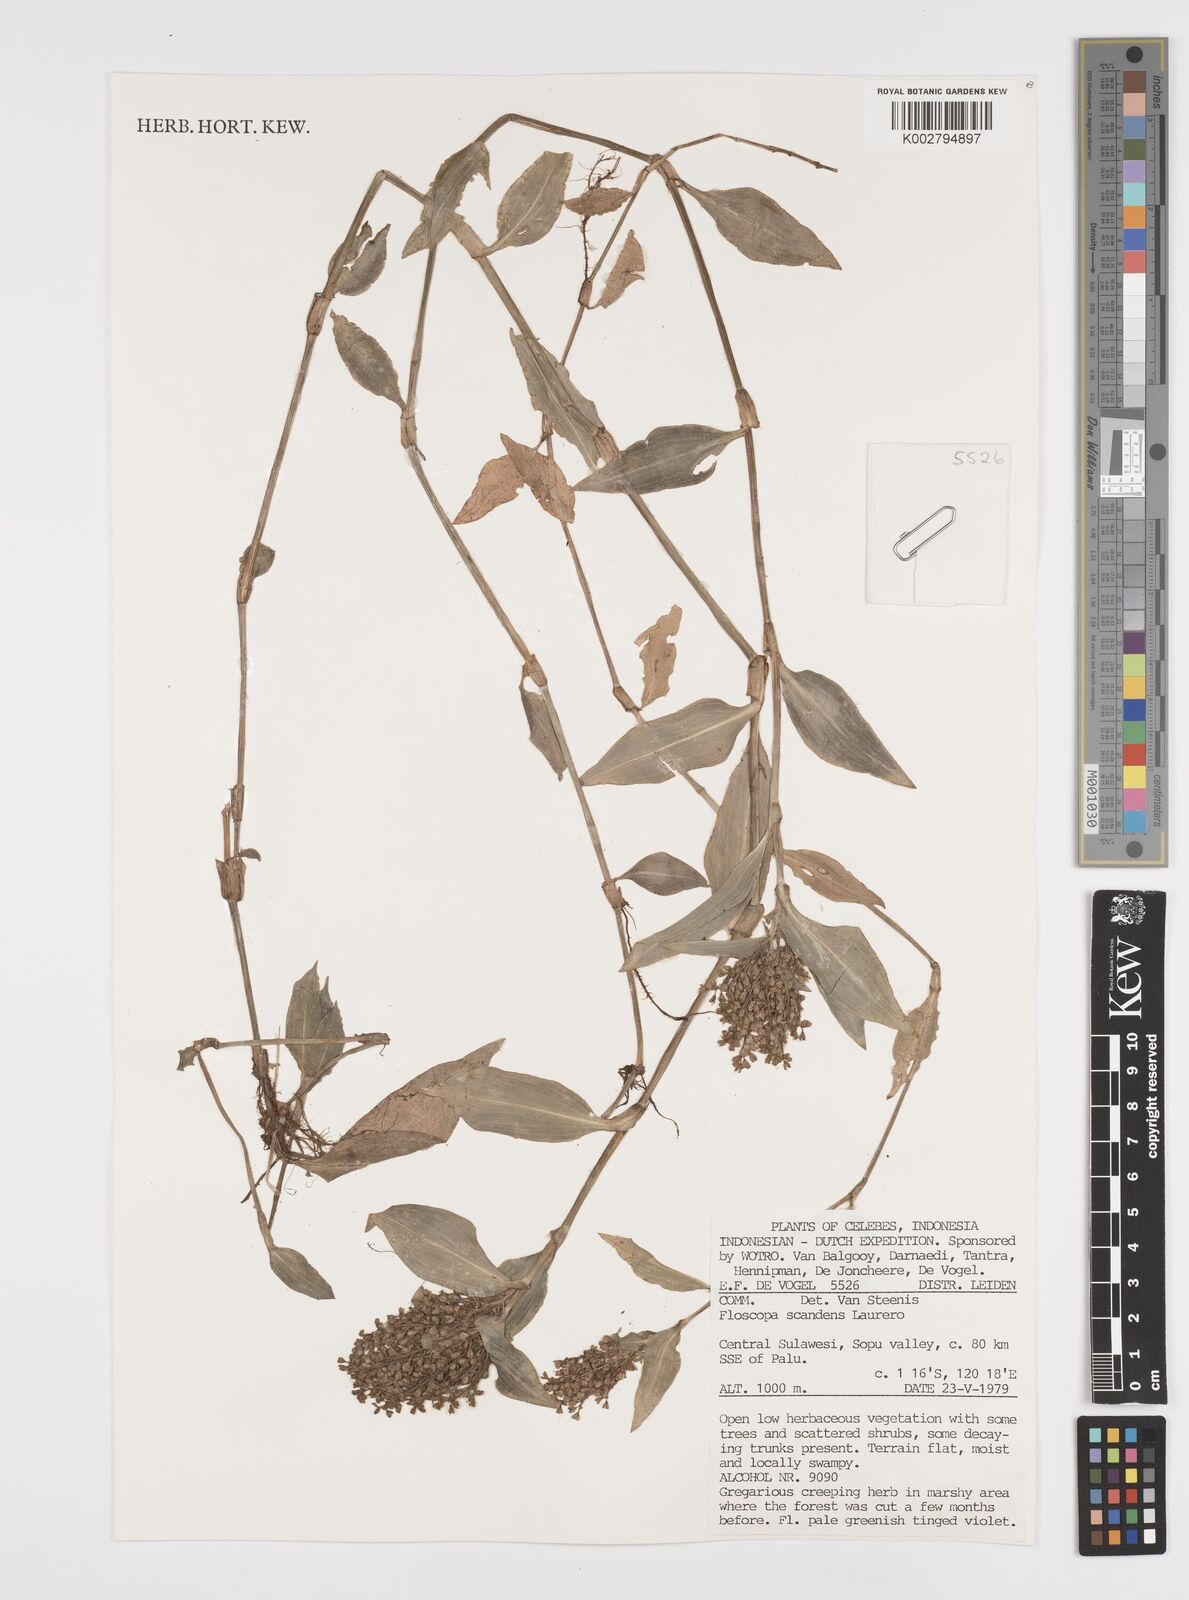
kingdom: Plantae
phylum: Tracheophyta
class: Liliopsida
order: Commelinales
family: Commelinaceae
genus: Floscopa
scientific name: Floscopa scandens
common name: Climbing flower cup
